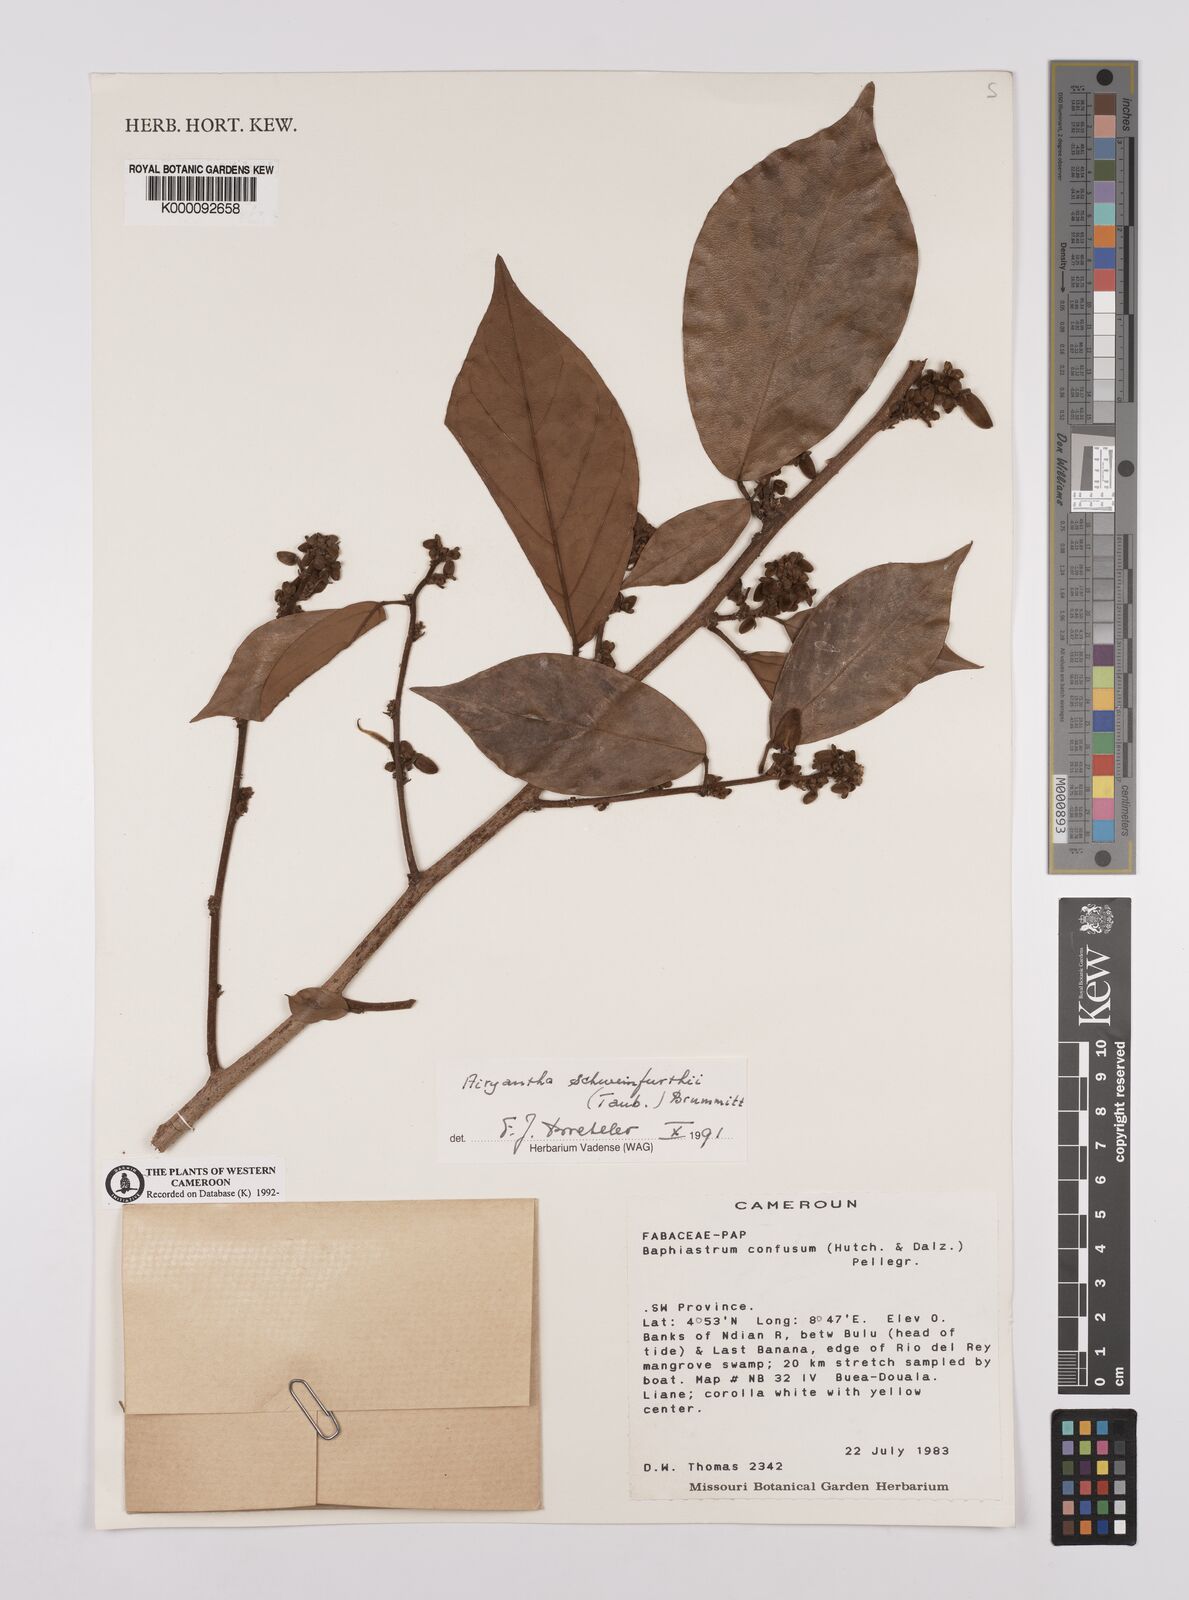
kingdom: Plantae
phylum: Tracheophyta
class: Magnoliopsida
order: Fabales
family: Fabaceae
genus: Airyantha
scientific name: Airyantha schweinfurthii
